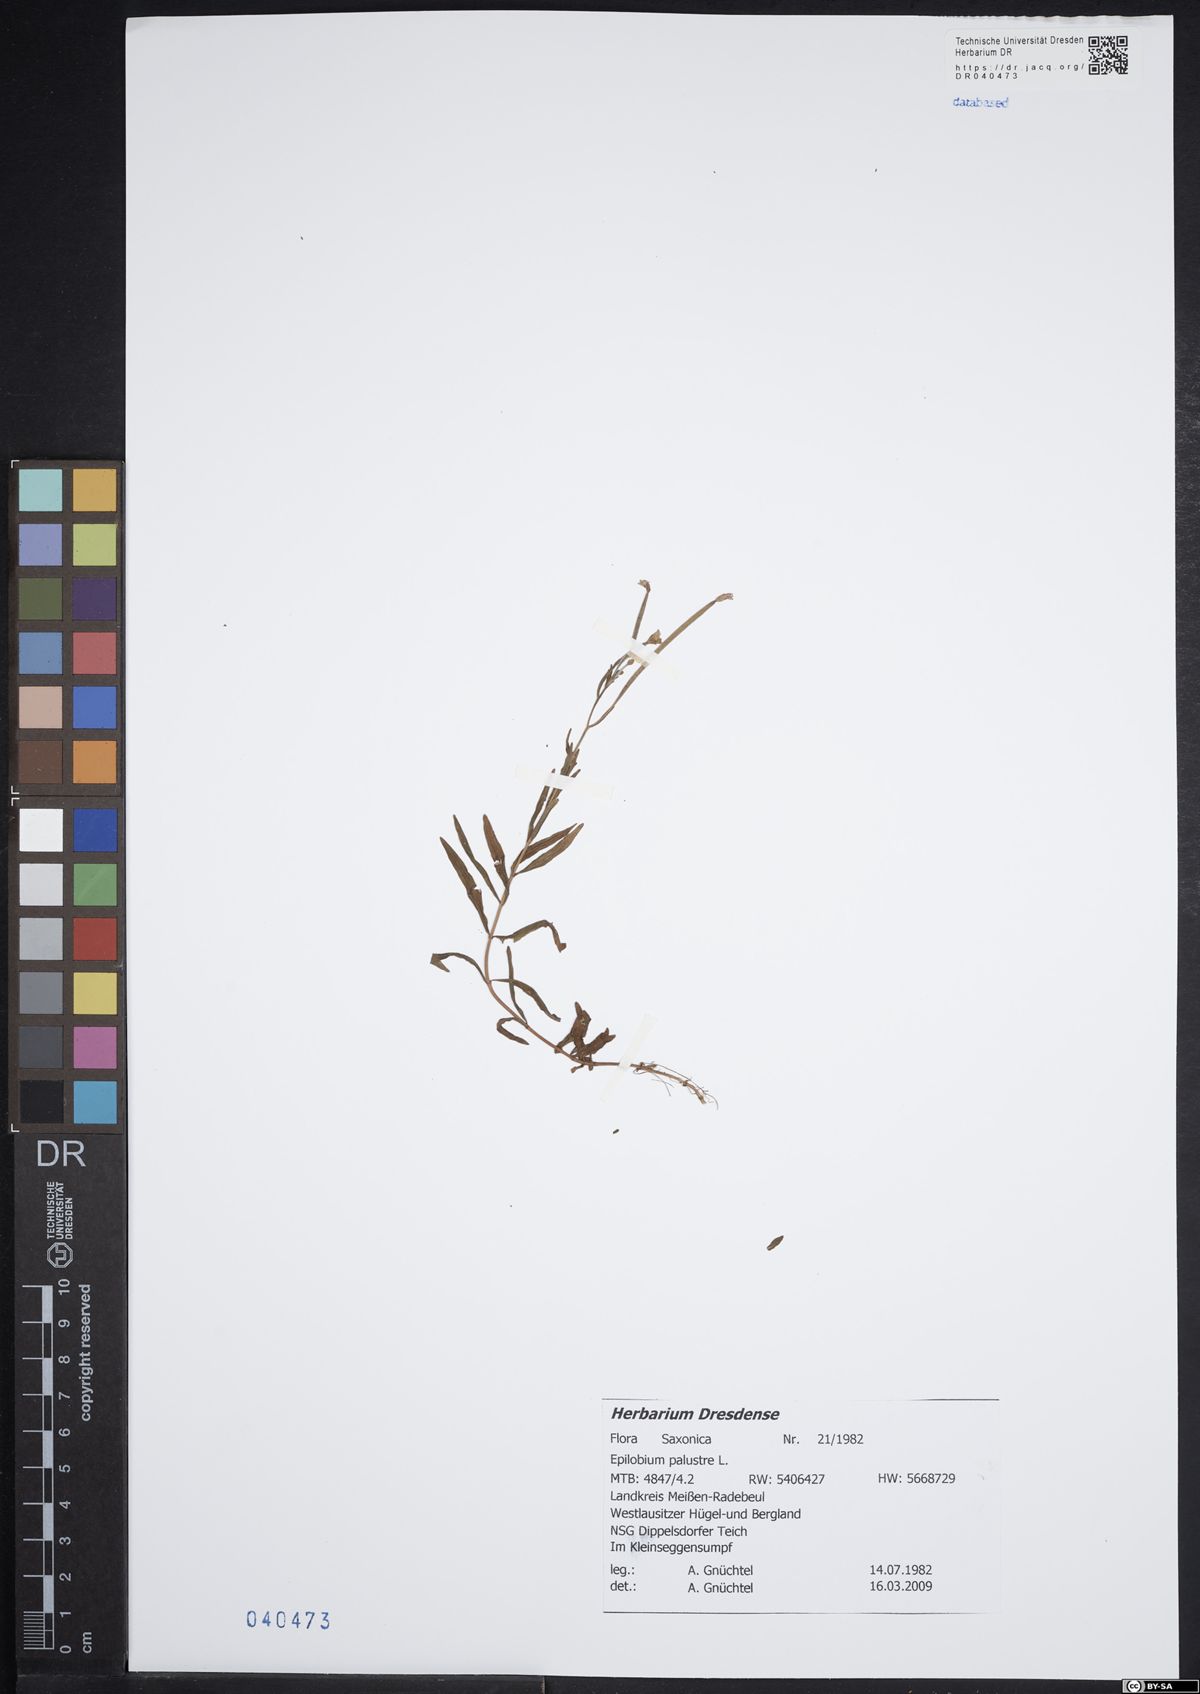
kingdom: Plantae
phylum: Tracheophyta
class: Magnoliopsida
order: Myrtales
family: Onagraceae
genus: Epilobium
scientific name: Epilobium palustre
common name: Marsh willowherb
